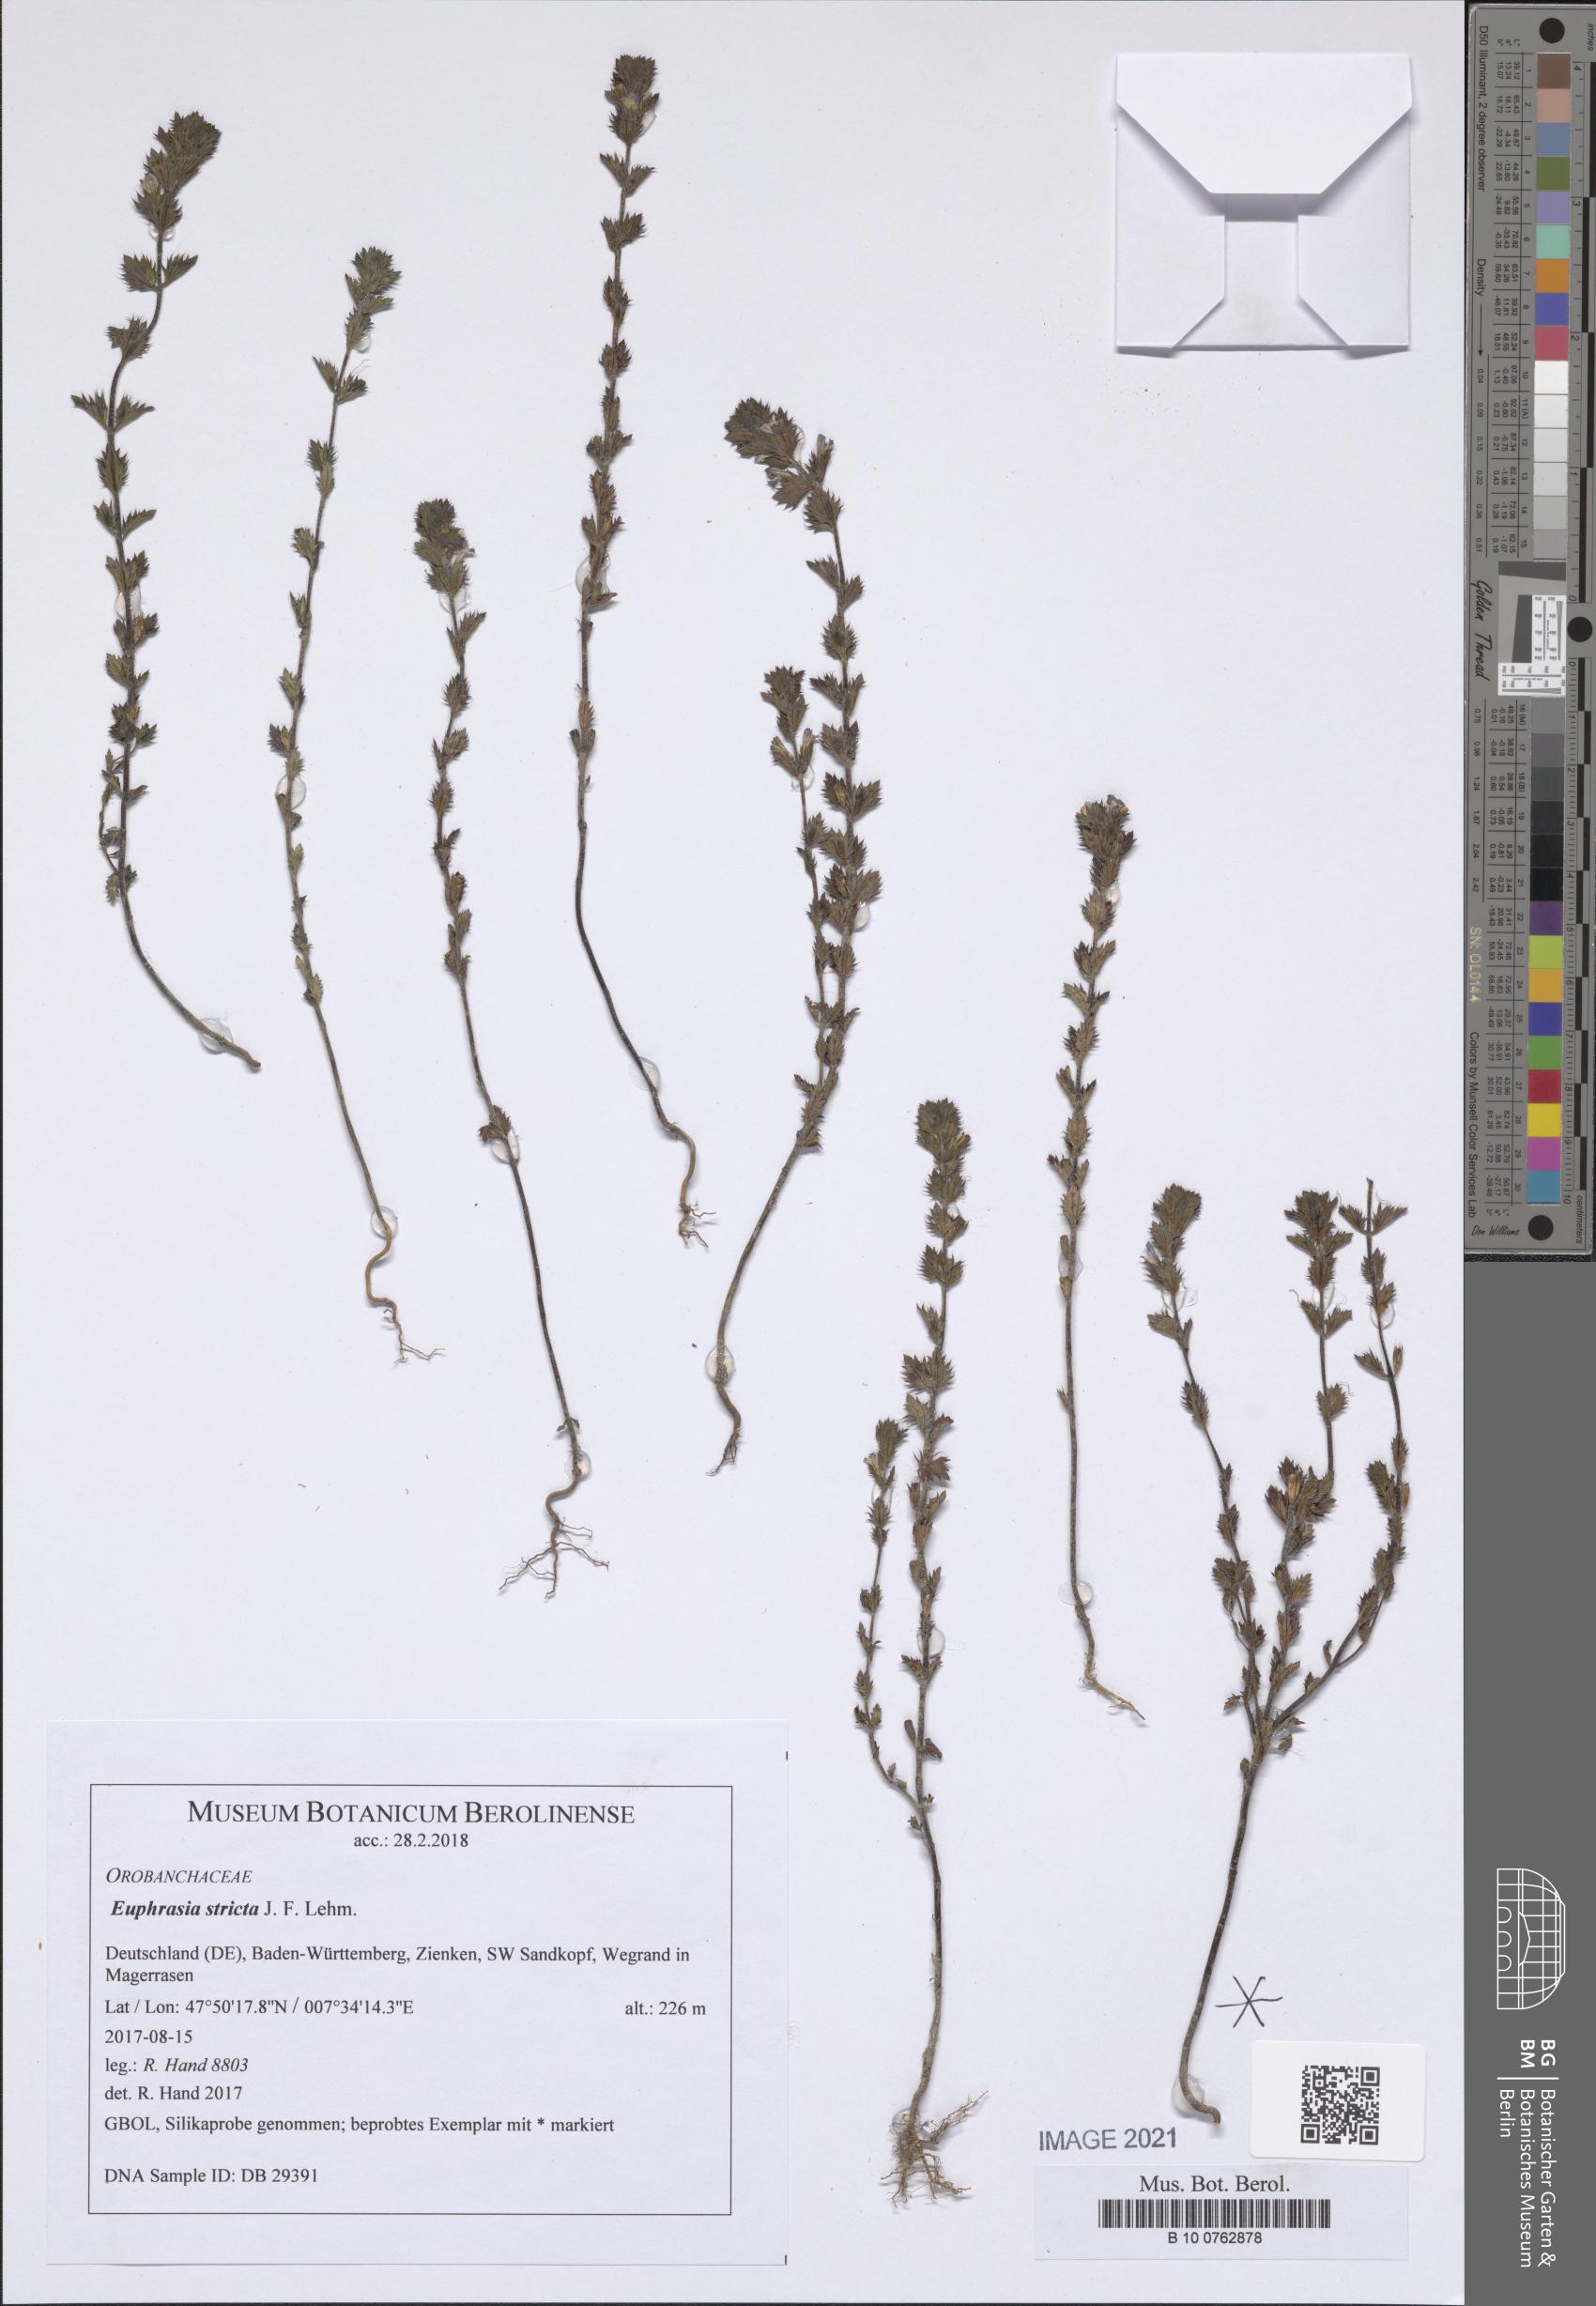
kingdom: Plantae
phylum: Tracheophyta
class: Magnoliopsida
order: Lamiales
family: Orobanchaceae
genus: Euphrasia
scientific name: Euphrasia stricta
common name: Drug eyebright
